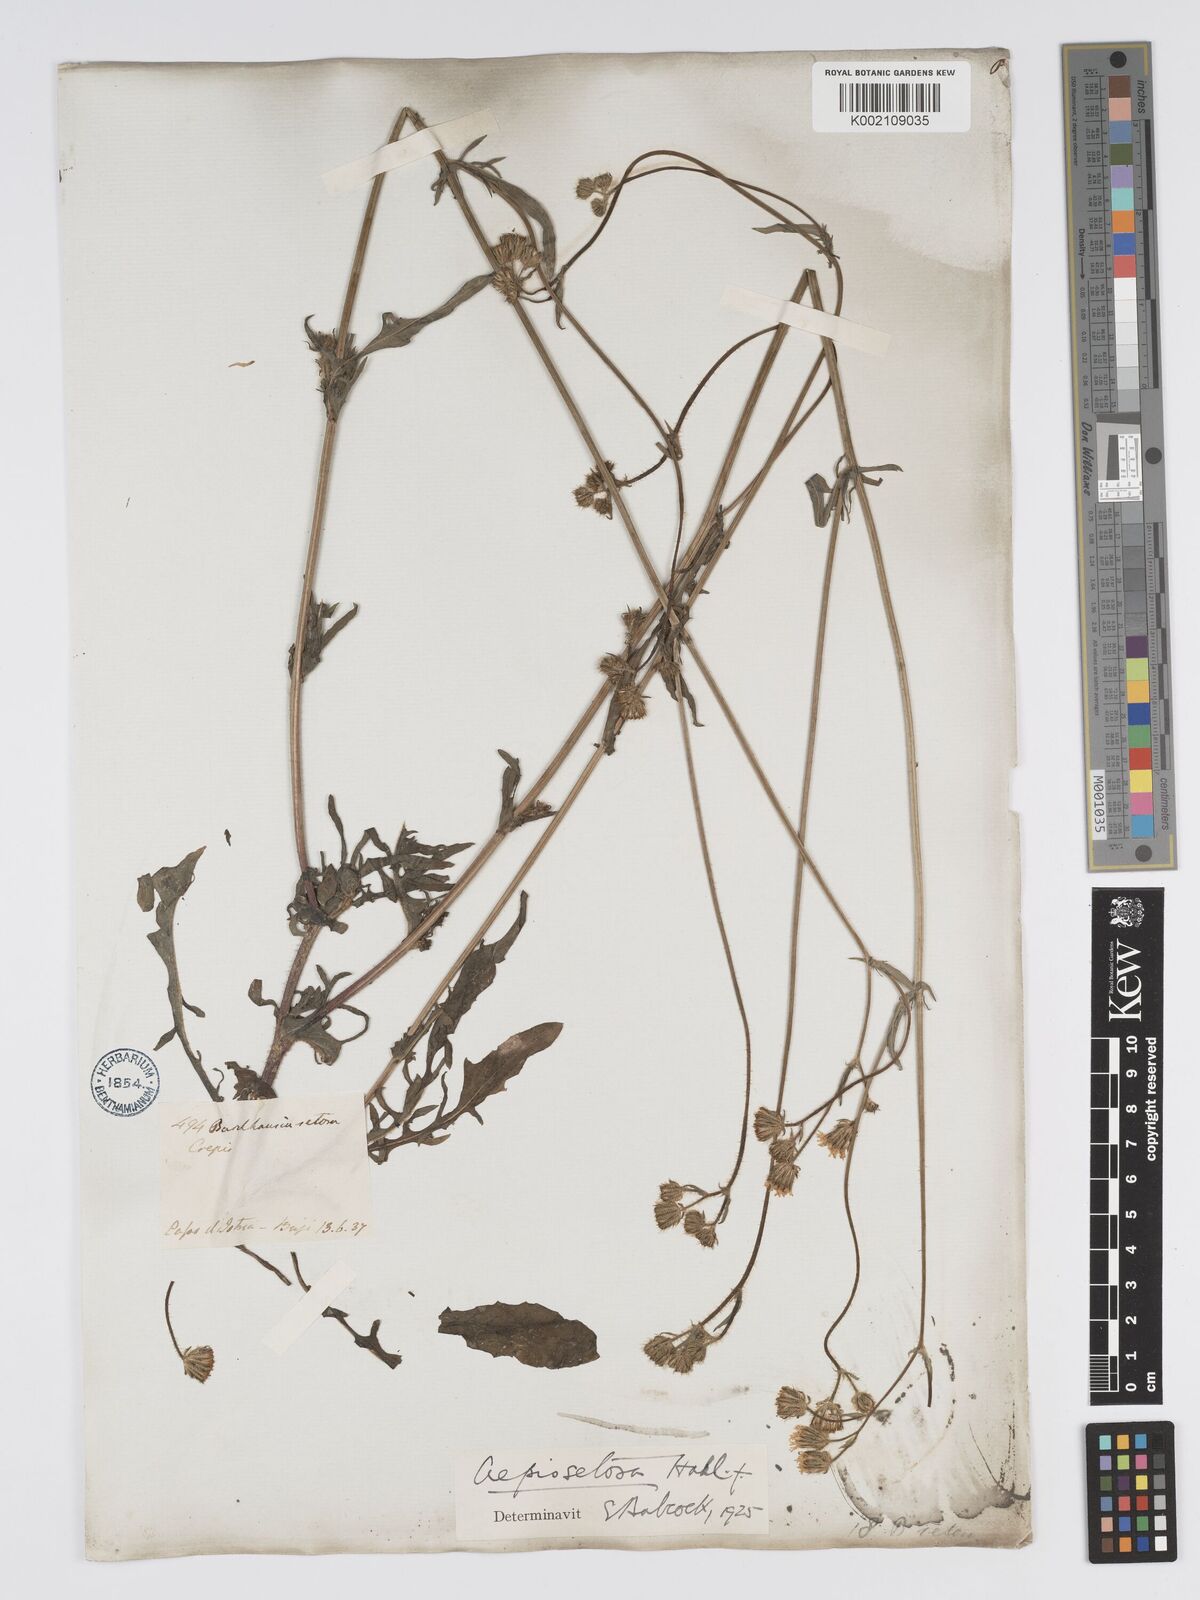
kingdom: Plantae
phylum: Tracheophyta
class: Magnoliopsida
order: Asterales
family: Asteraceae
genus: Crepis
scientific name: Crepis setosa
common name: Bristly hawk's-beard
